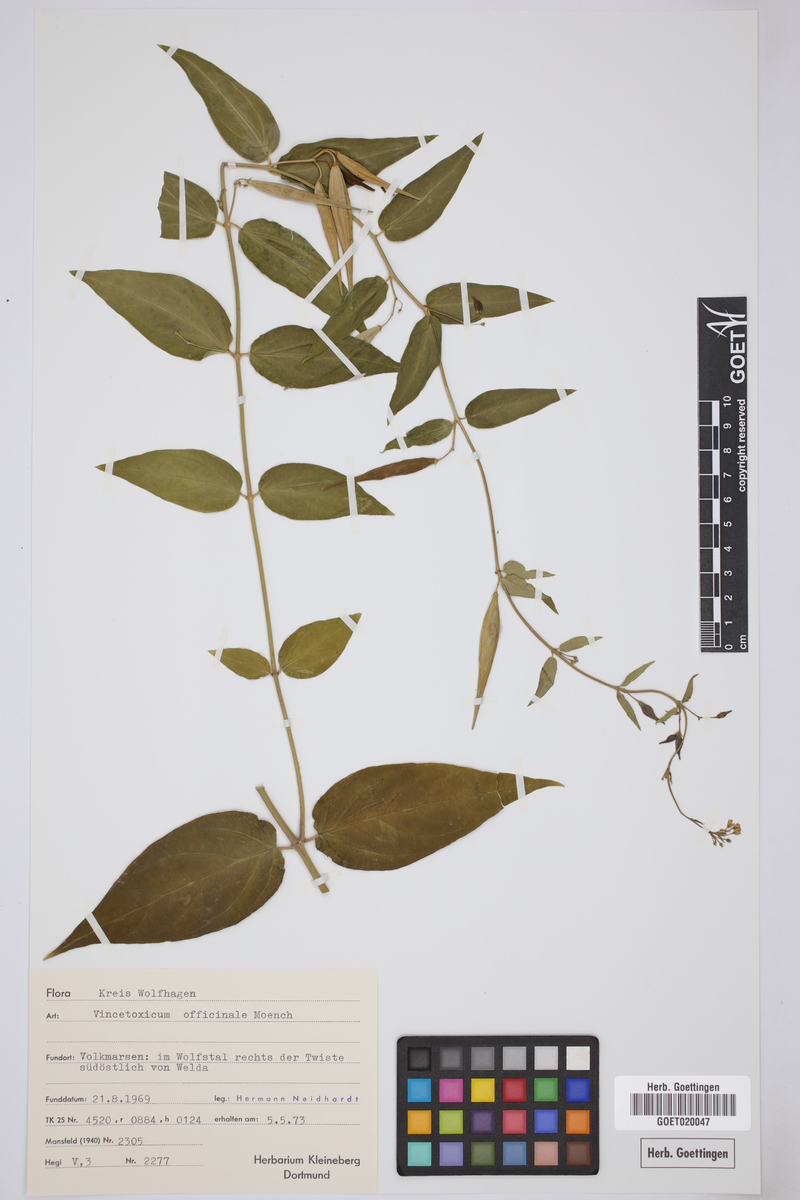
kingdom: Plantae
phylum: Tracheophyta
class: Magnoliopsida
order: Gentianales
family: Apocynaceae
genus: Vincetoxicum
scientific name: Vincetoxicum hirundinaria
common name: White swallowwort
